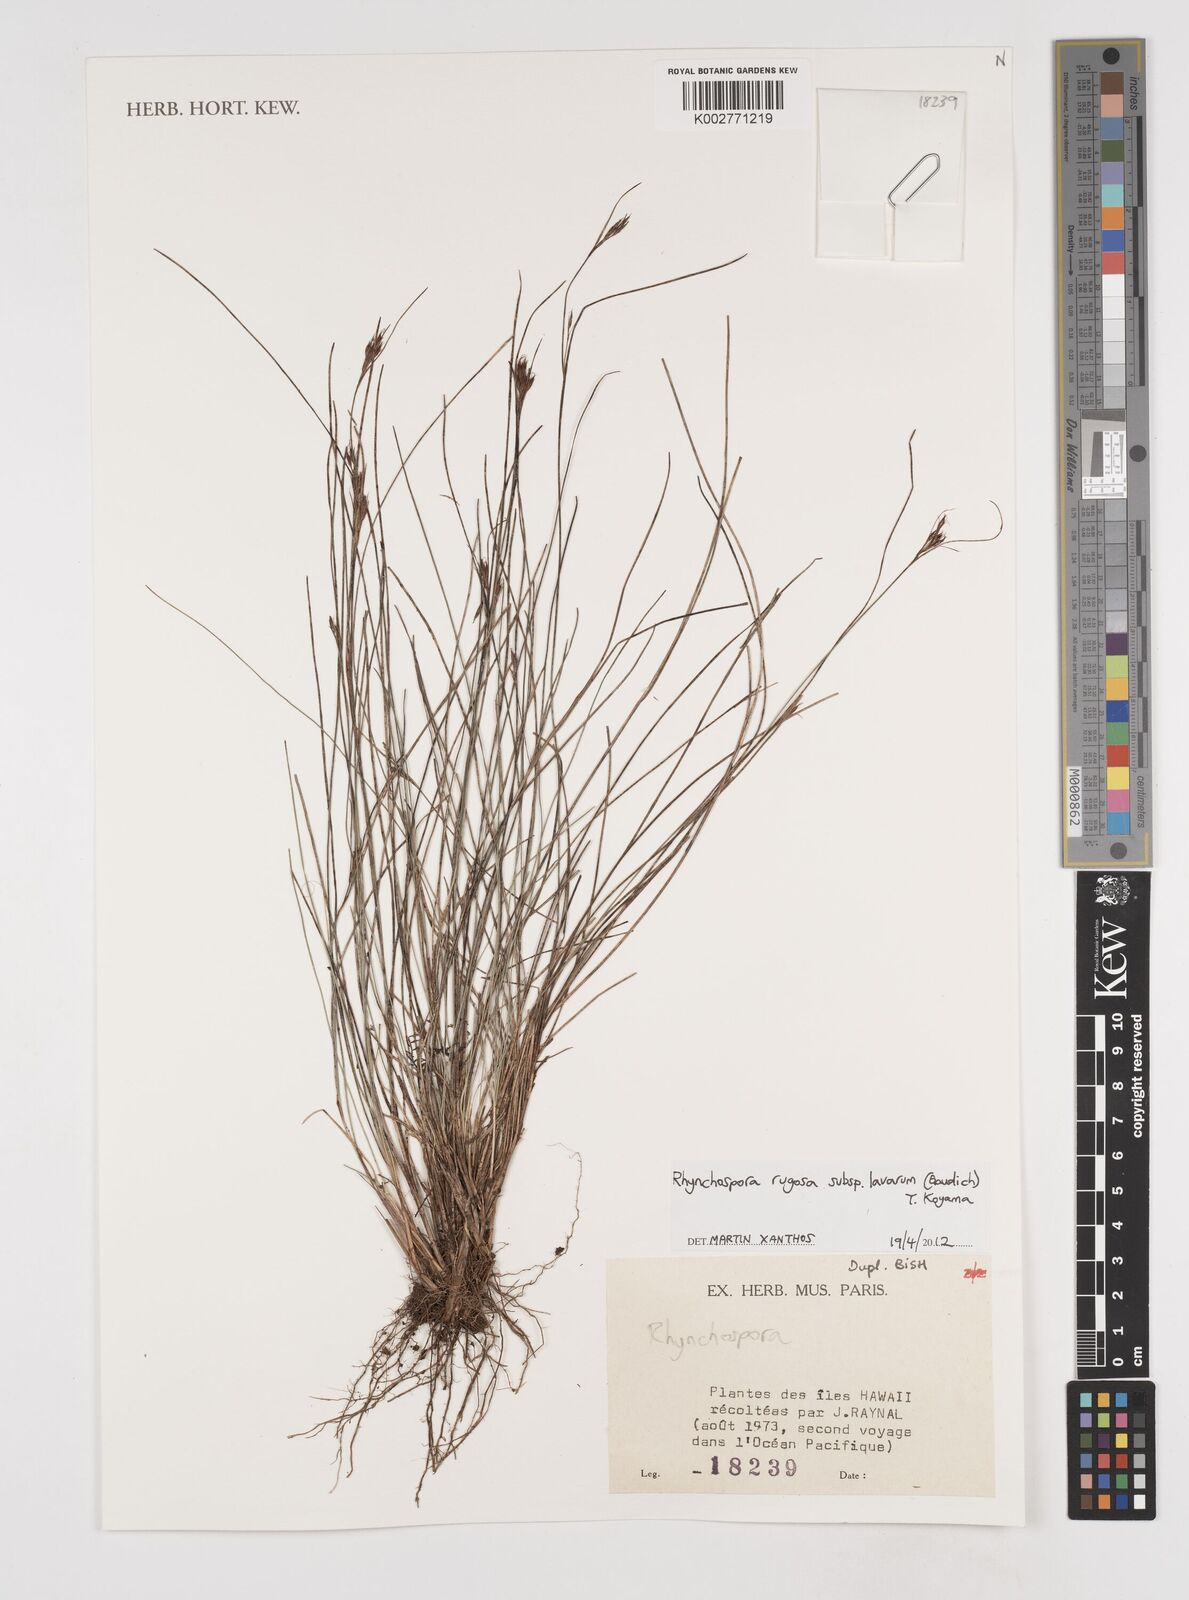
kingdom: Plantae
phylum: Tracheophyta
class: Liliopsida
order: Poales
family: Cyperaceae
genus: Rhynchospora
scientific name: Rhynchospora rugosa
